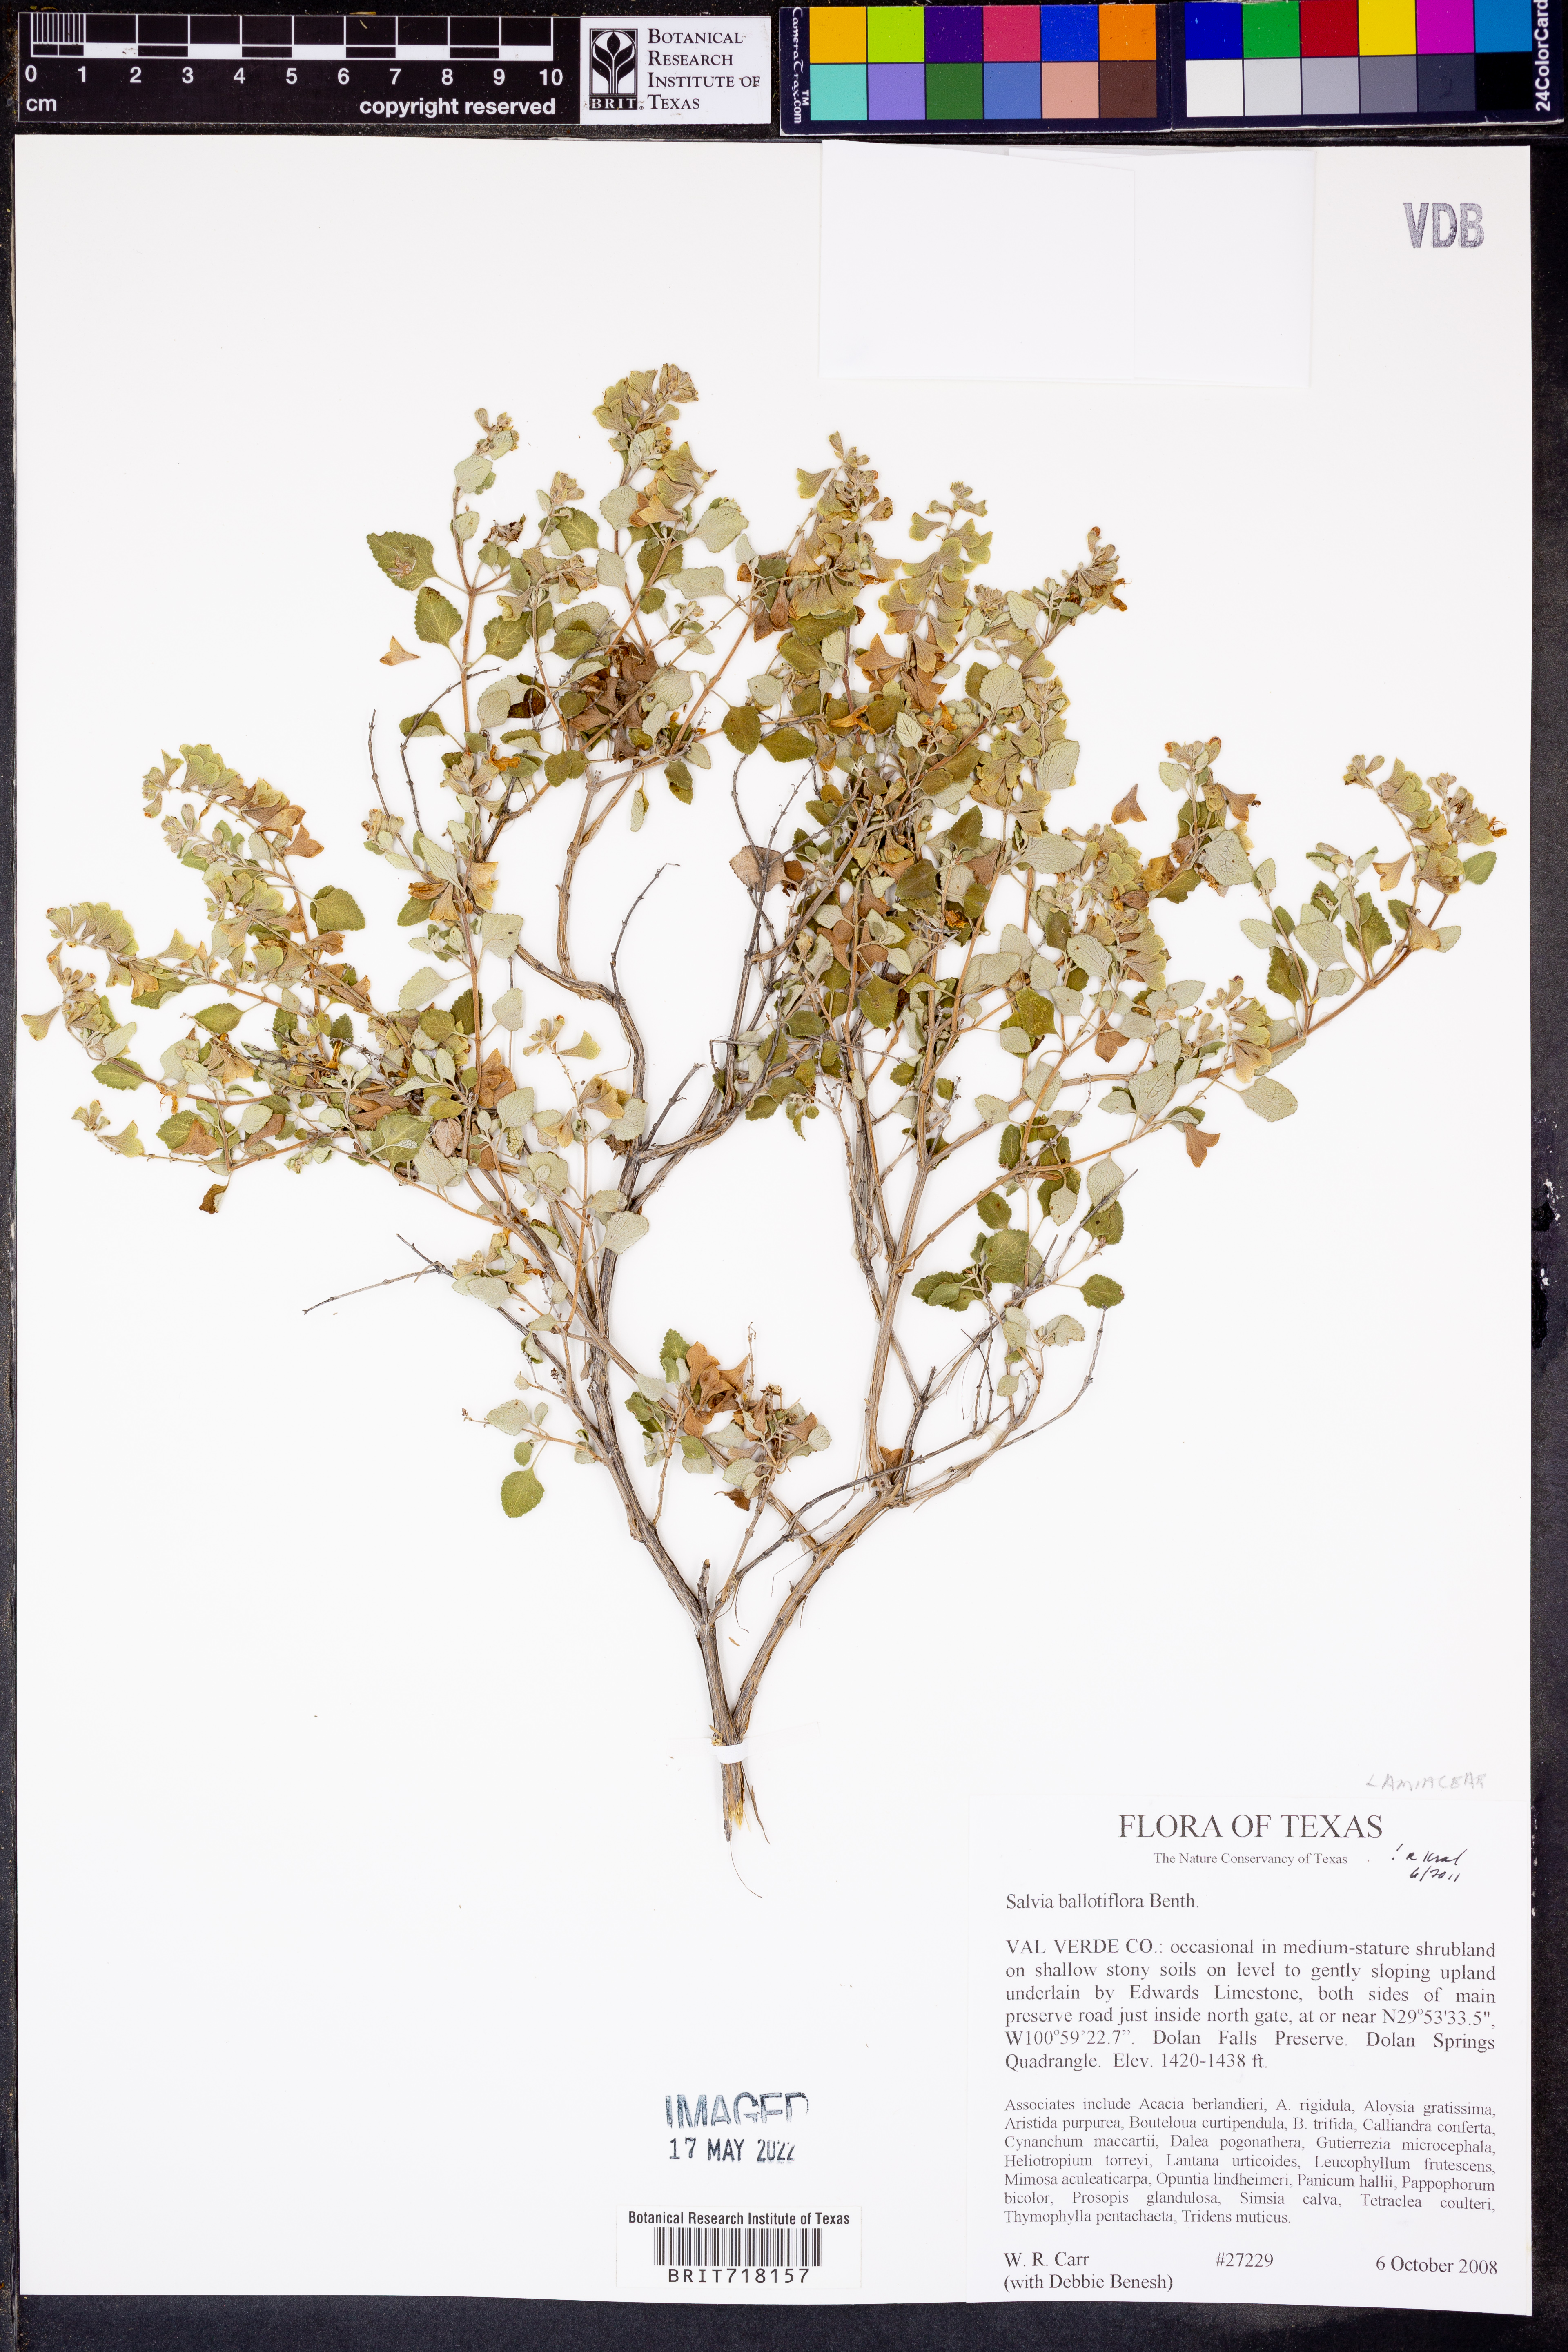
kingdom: Plantae
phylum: Tracheophyta
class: Magnoliopsida
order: Lamiales
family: Lamiaceae
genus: Salvia
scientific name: Salvia ballotiflora
